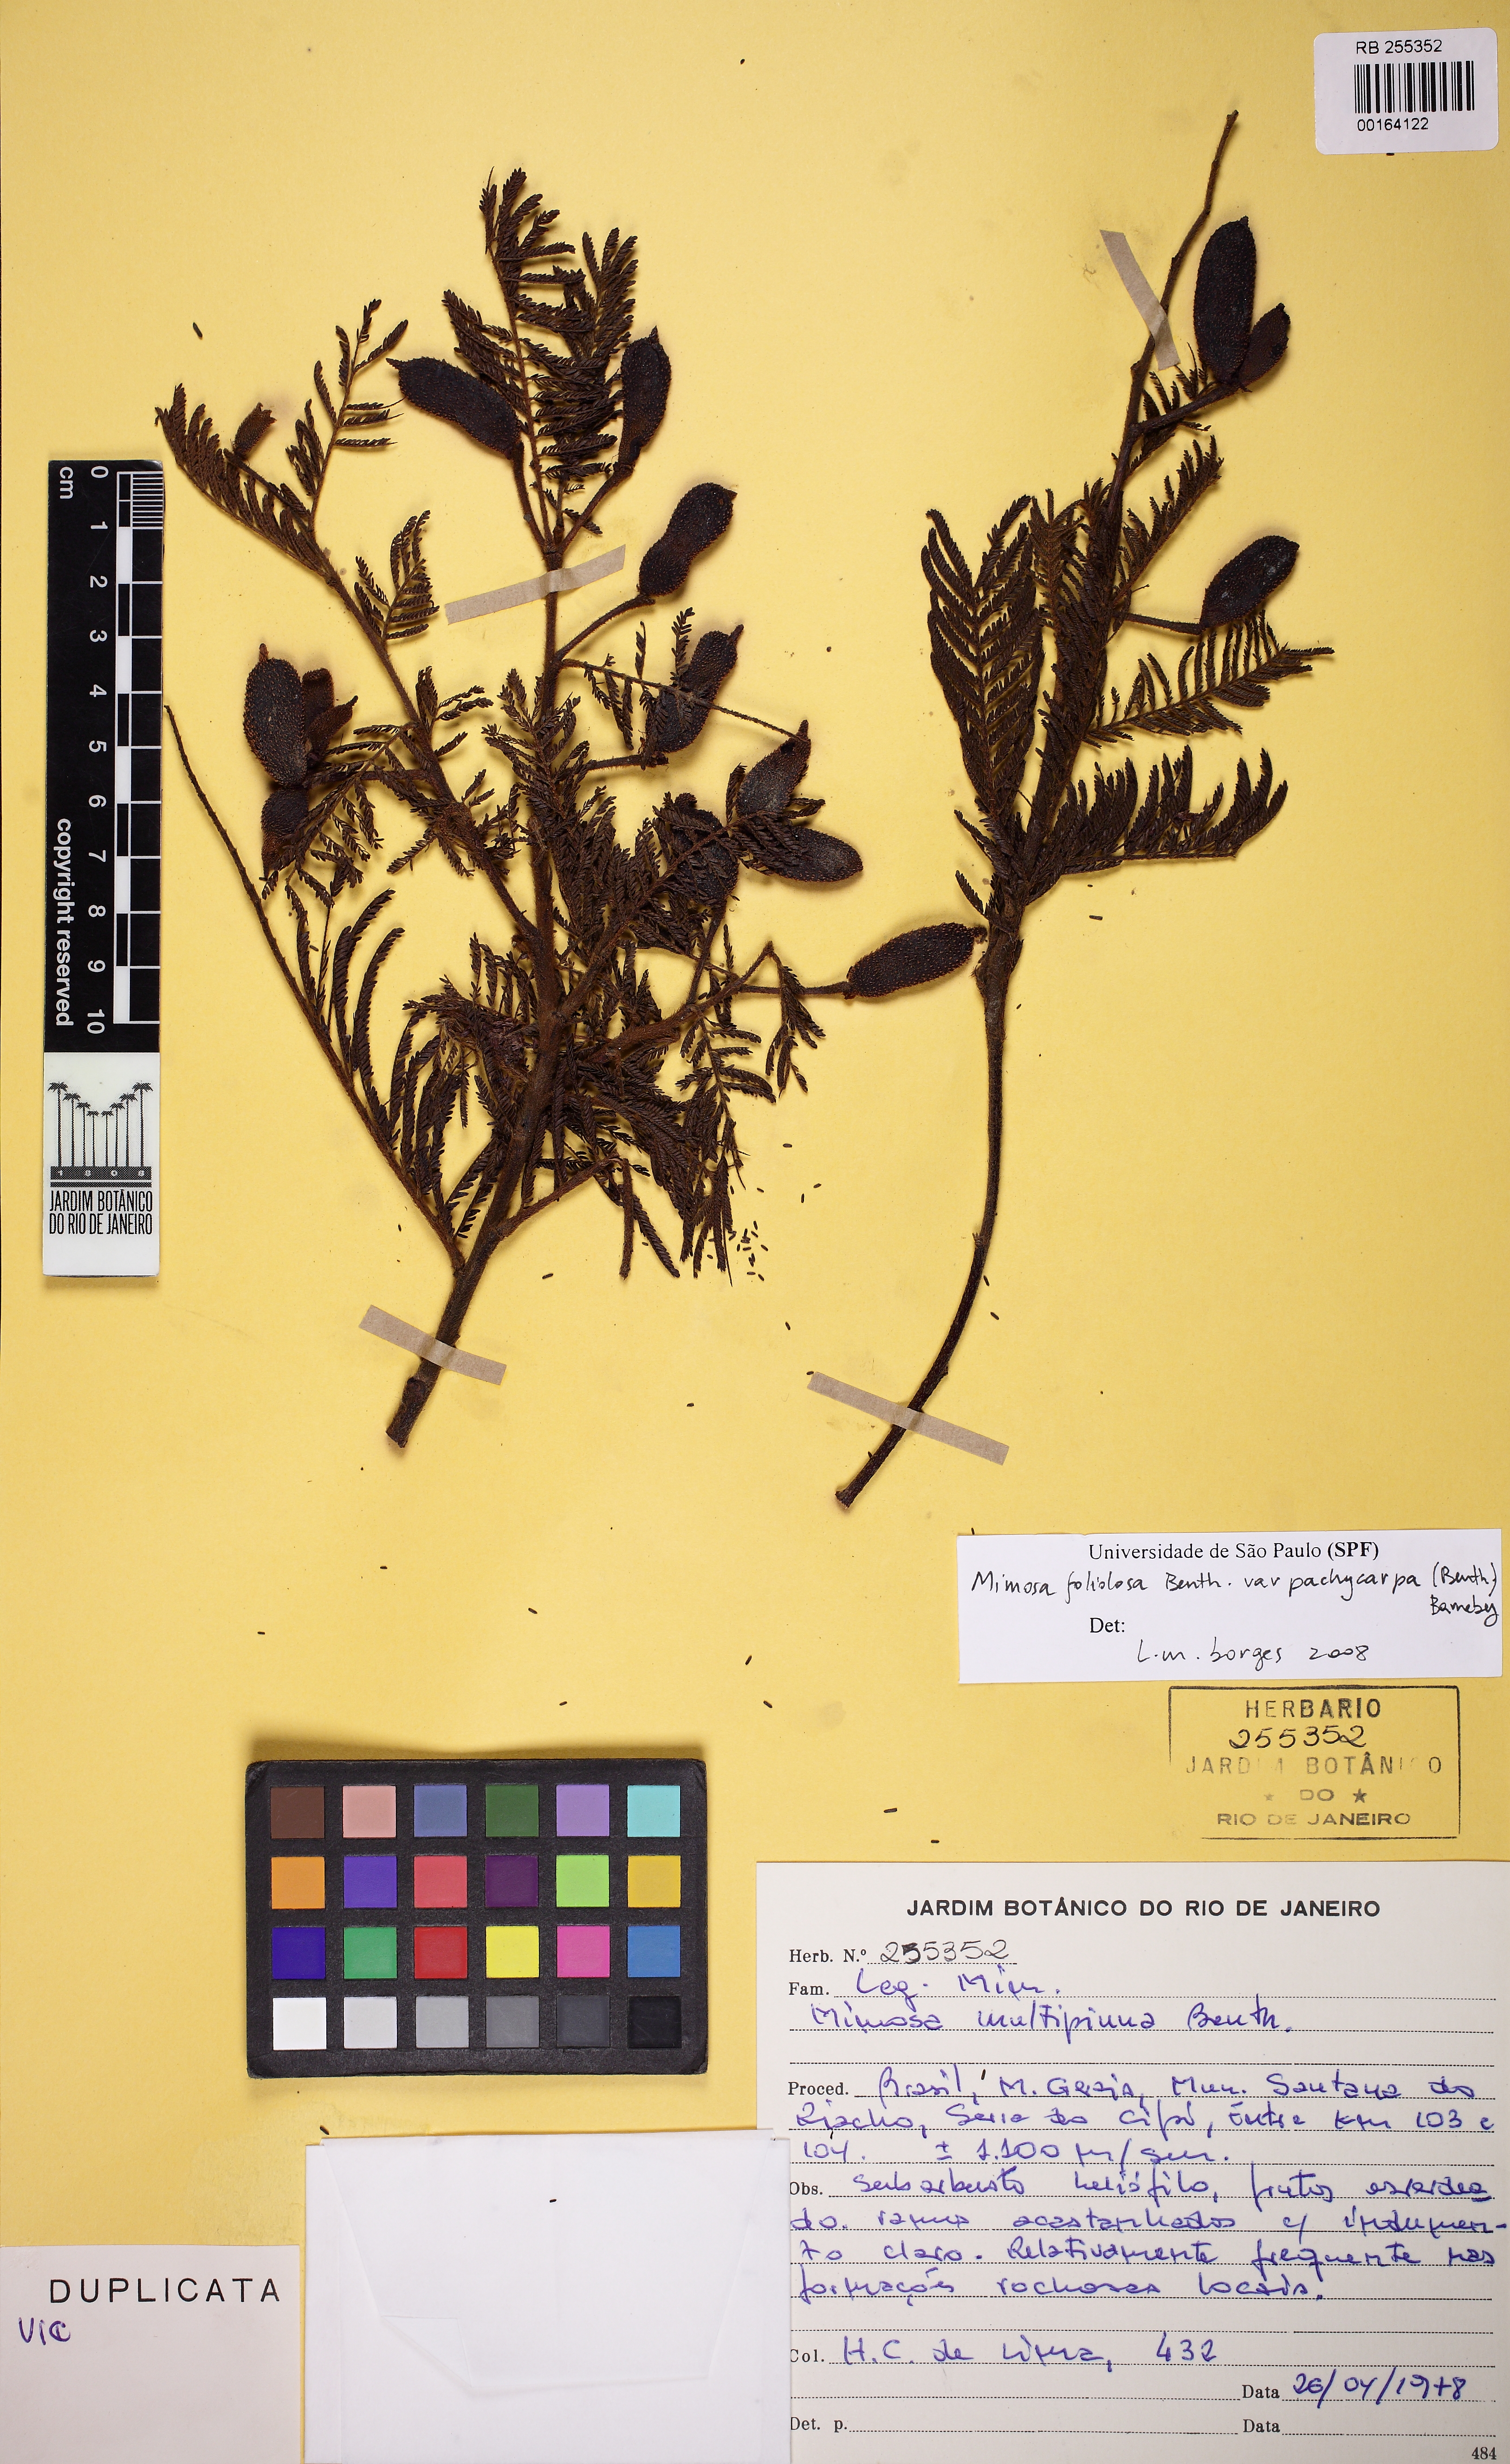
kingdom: Plantae
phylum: Tracheophyta
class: Magnoliopsida
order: Fabales
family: Fabaceae
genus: Mimosa
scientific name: Mimosa foliolosa
